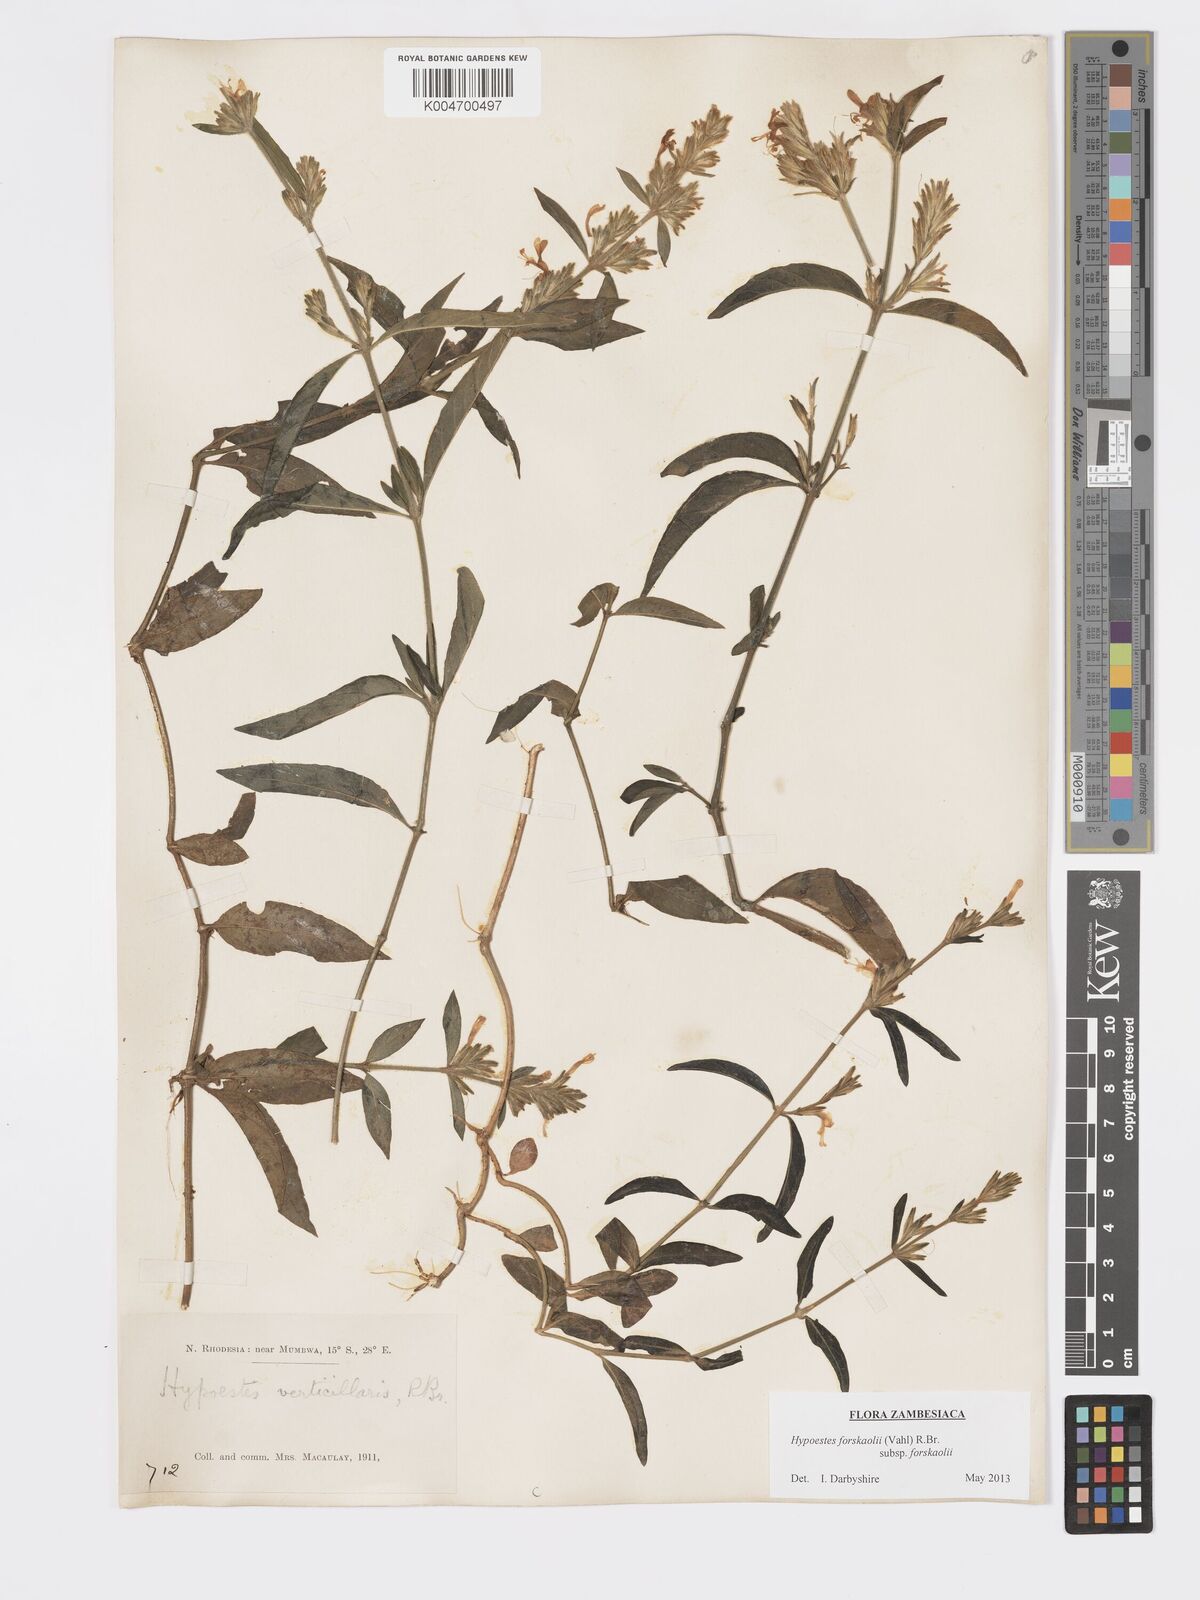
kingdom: Plantae
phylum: Tracheophyta
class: Magnoliopsida
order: Lamiales
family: Acanthaceae
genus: Hypoestes
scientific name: Hypoestes forskaolii
